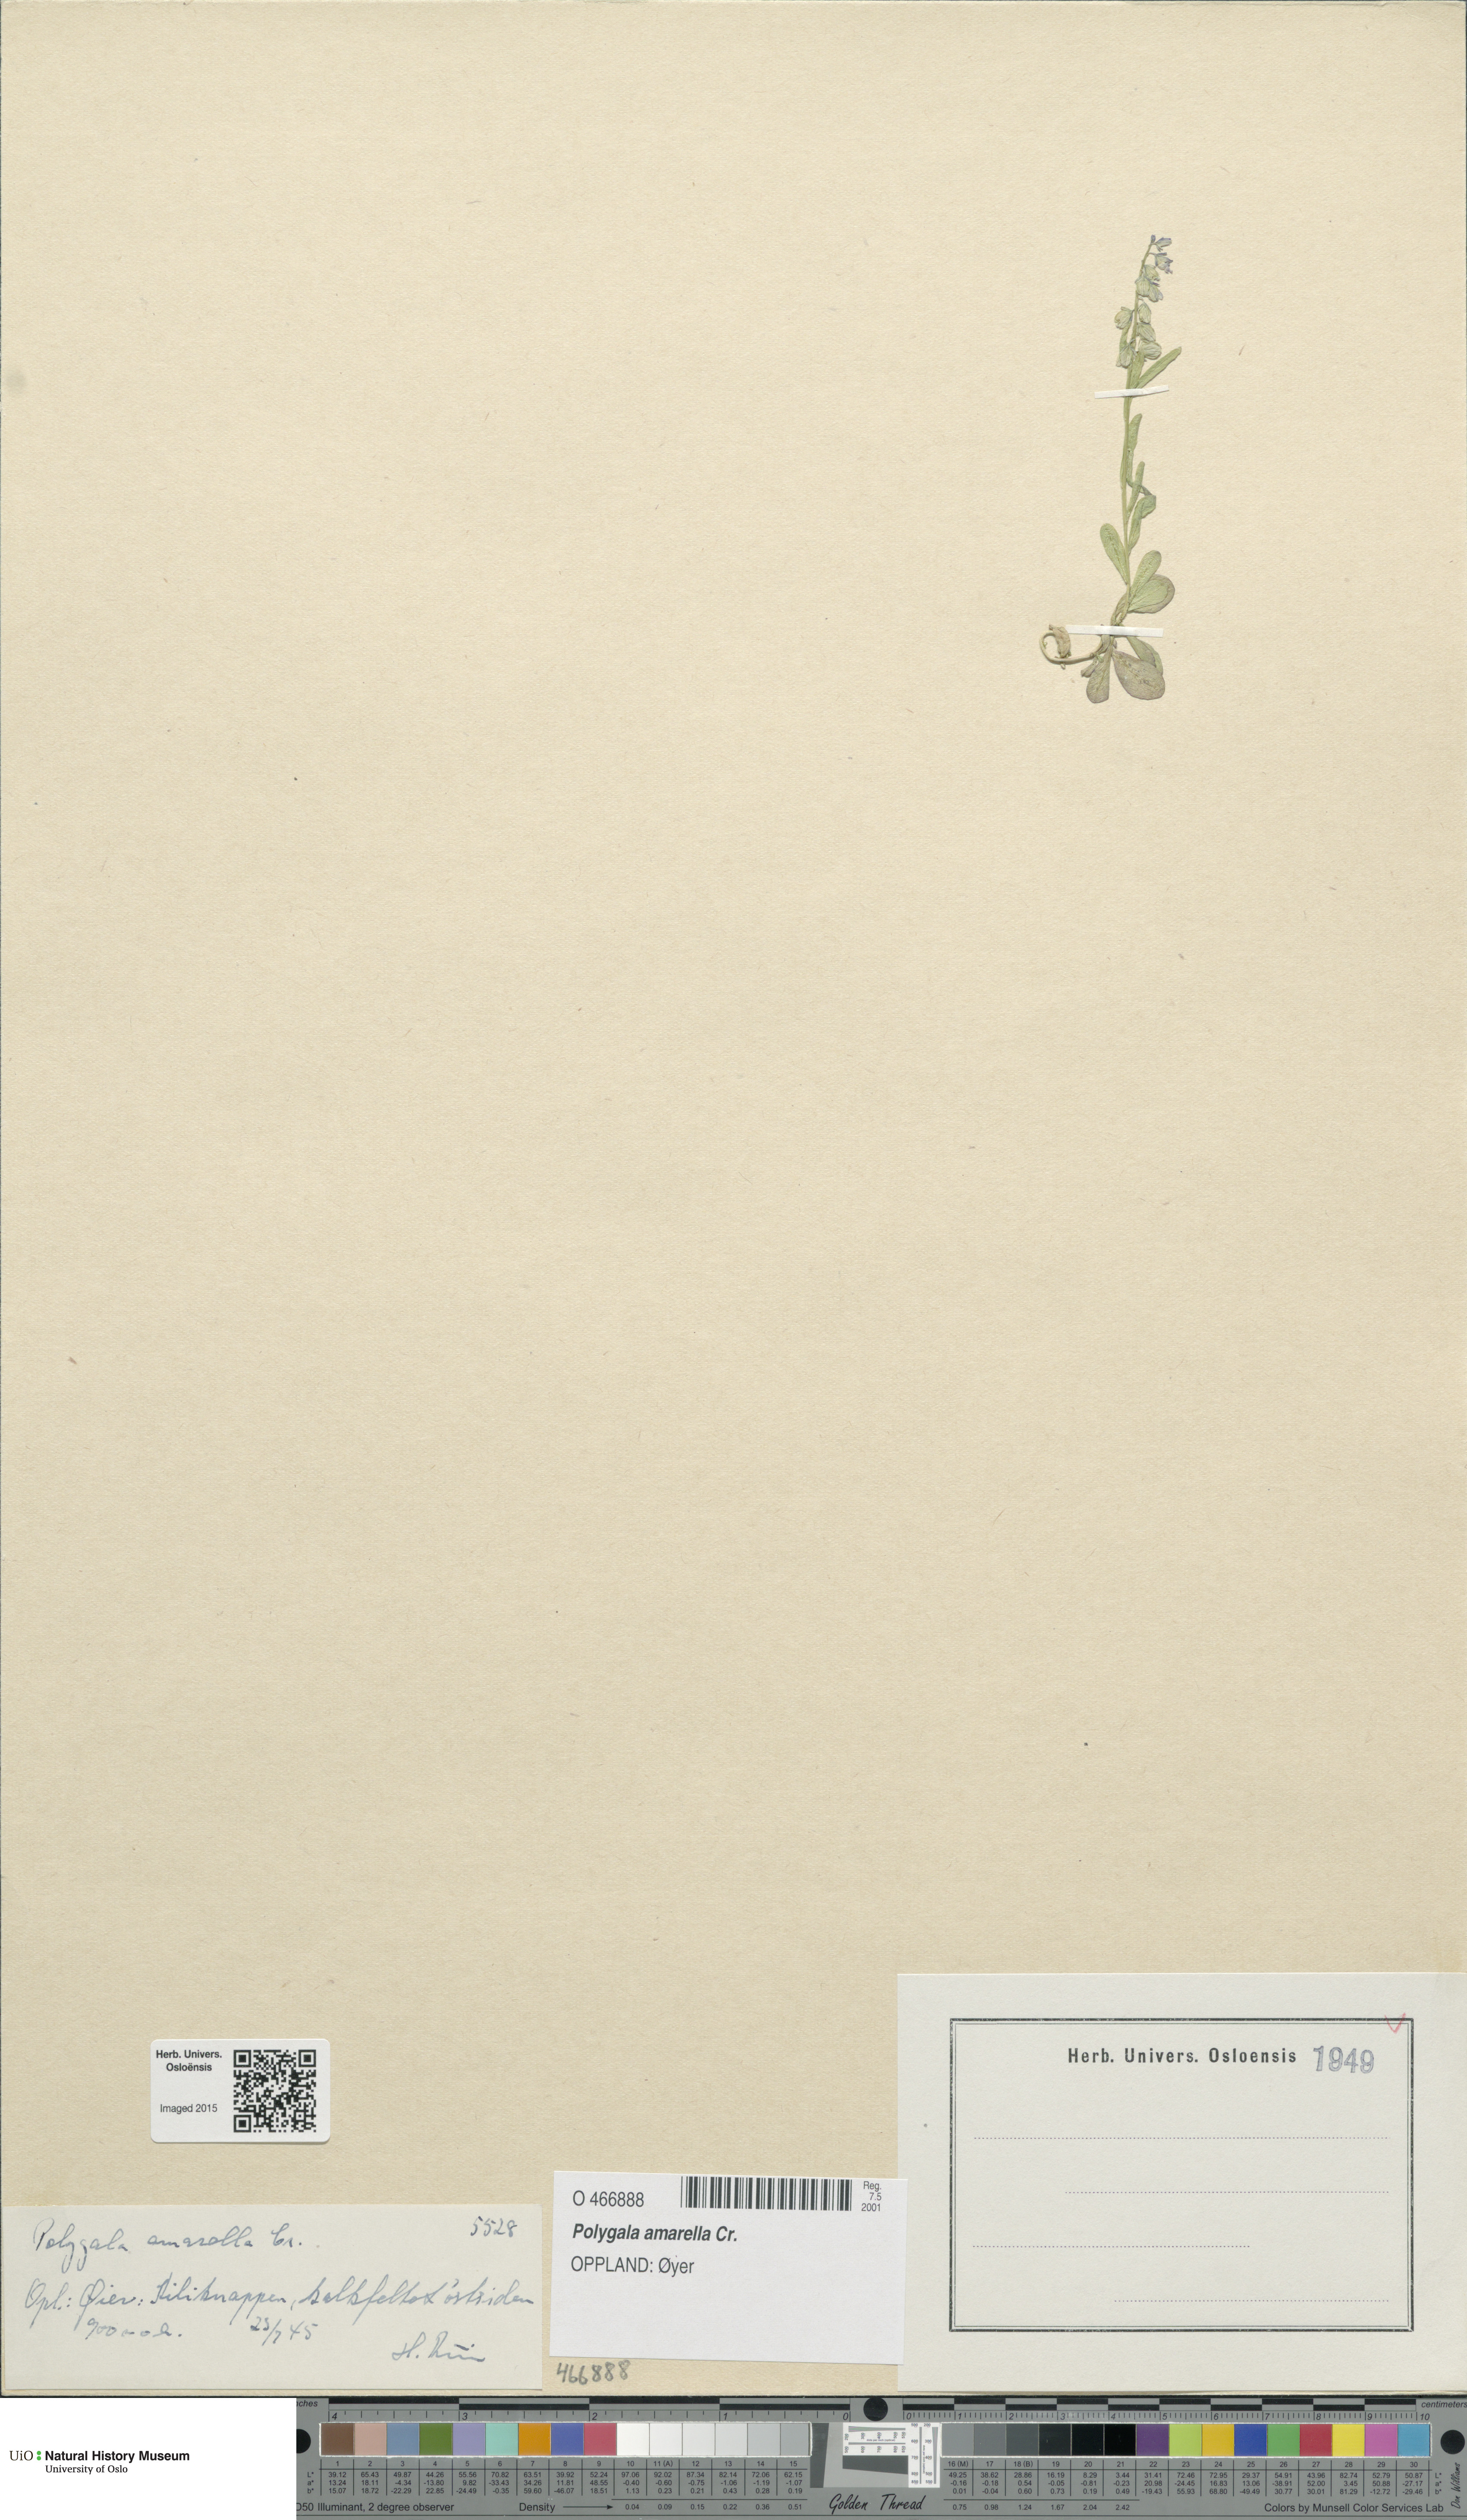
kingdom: Plantae
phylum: Tracheophyta
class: Magnoliopsida
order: Fabales
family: Polygalaceae
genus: Polygala
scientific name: Polygala amarella
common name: Dwarf milkwort
